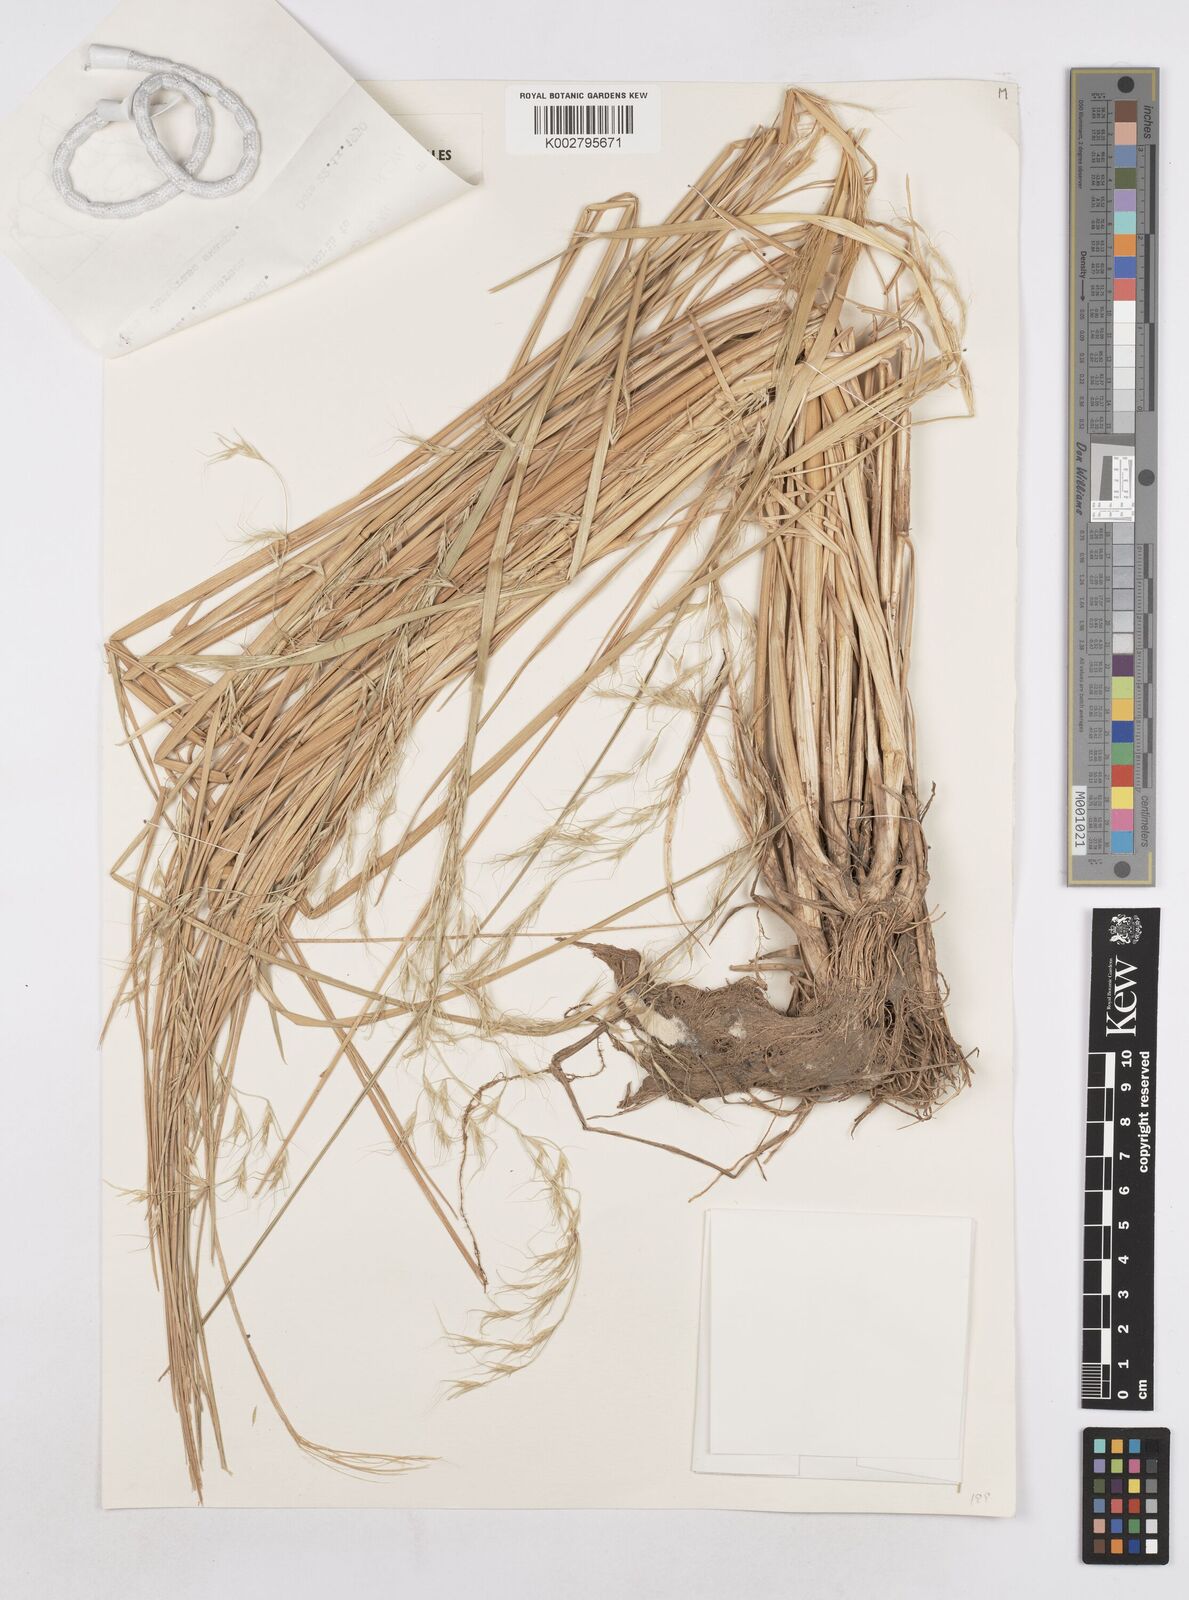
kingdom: Plantae
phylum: Tracheophyta
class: Liliopsida
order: Poales
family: Poaceae
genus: Amphibromus
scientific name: Amphibromus neesii
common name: Australian wallaby grass
